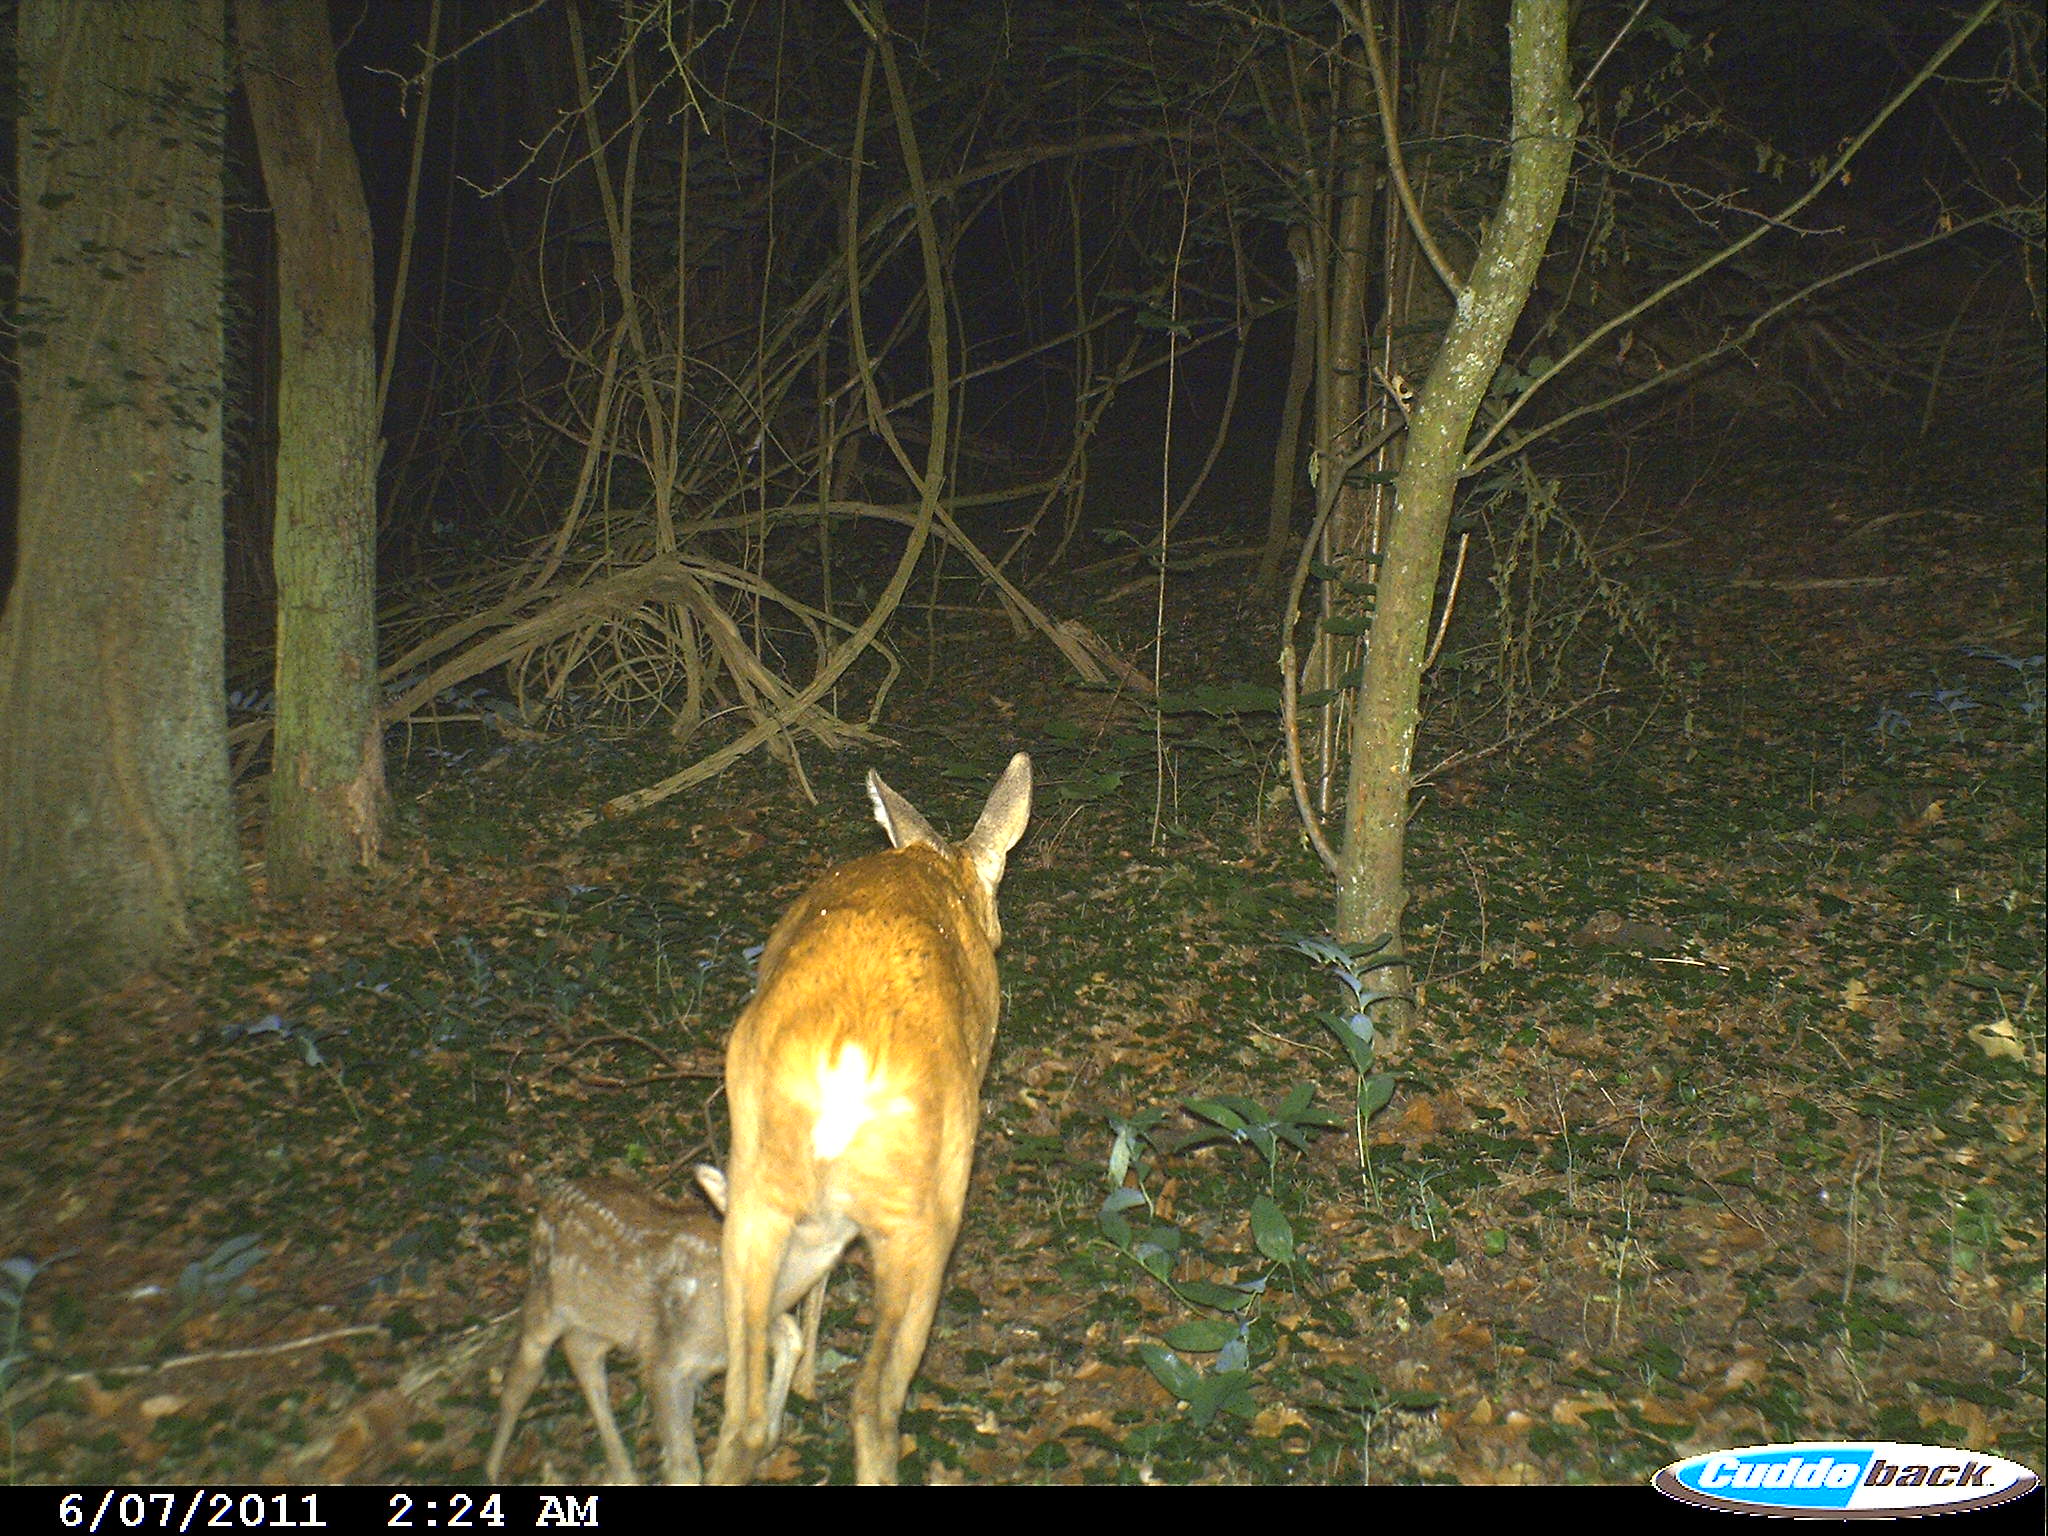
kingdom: Animalia
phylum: Chordata
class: Mammalia
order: Artiodactyla
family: Cervidae
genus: Capreolus
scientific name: Capreolus capreolus
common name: Western roe deer
